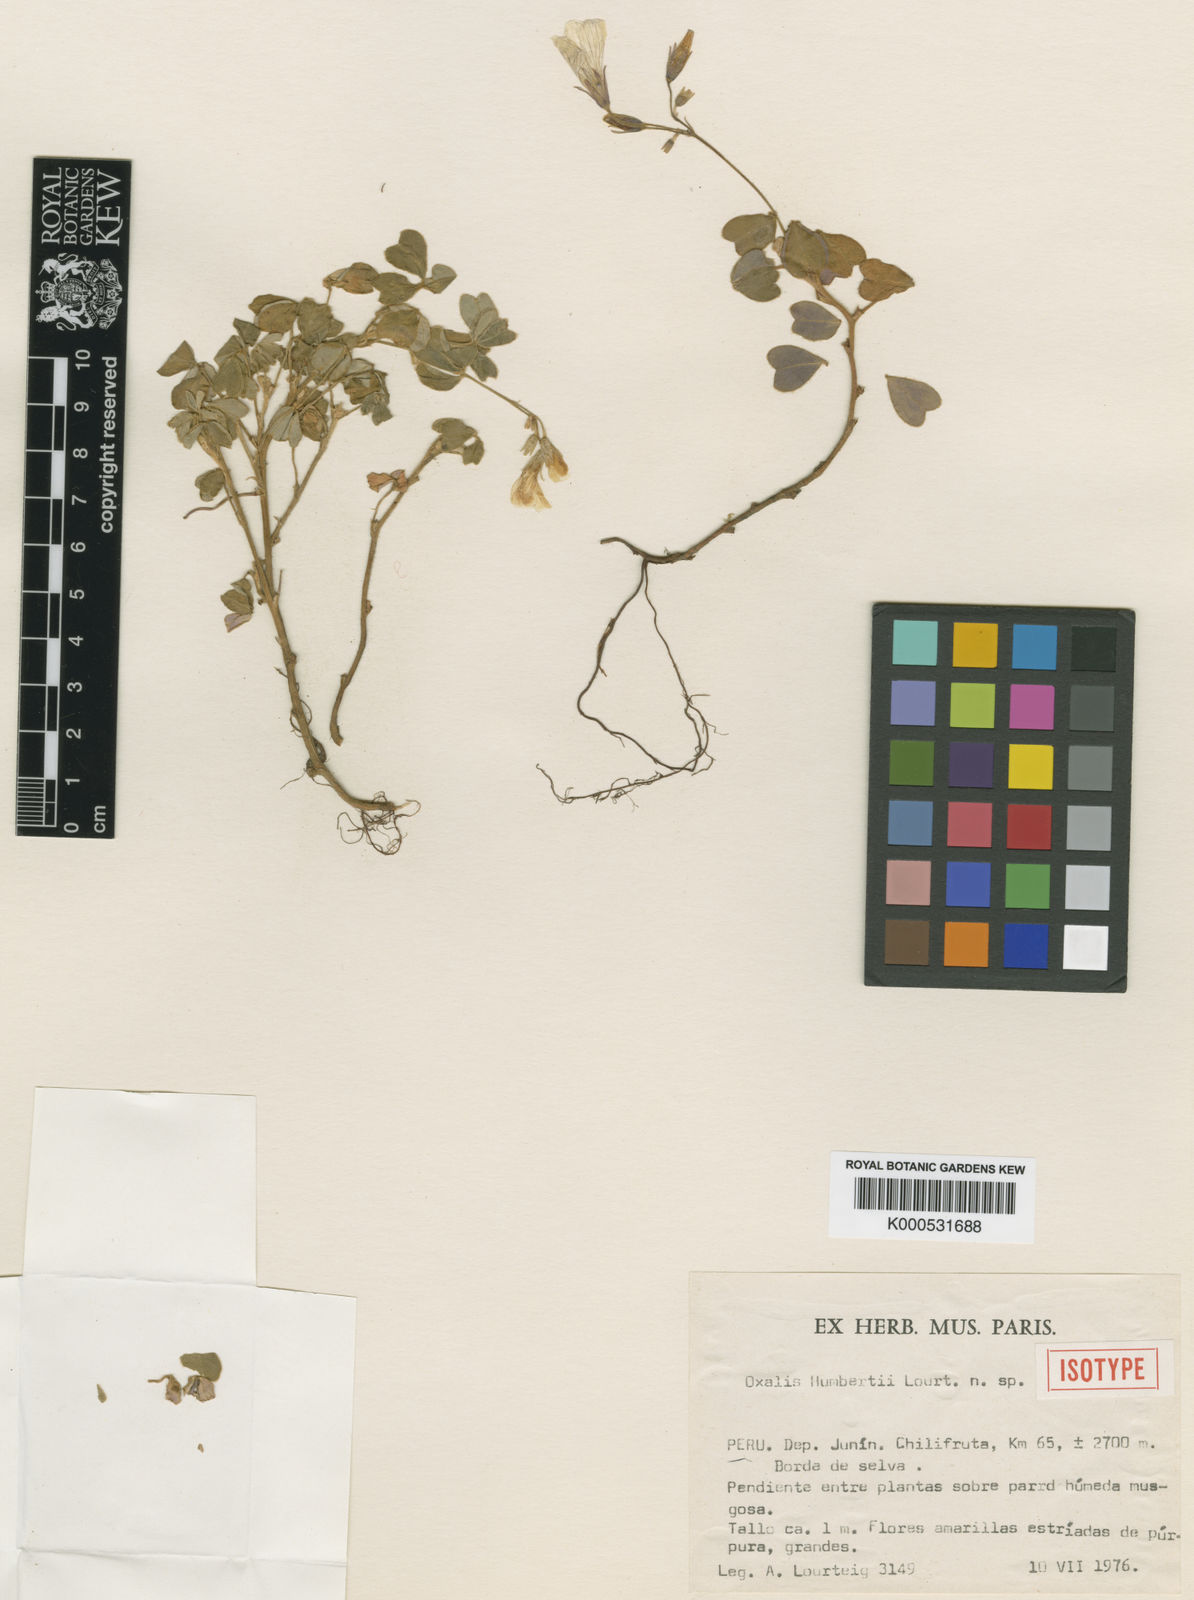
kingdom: Plantae
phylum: Tracheophyta
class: Magnoliopsida
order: Oxalidales
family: Oxalidaceae
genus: Oxalis
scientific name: Oxalis humbertii
